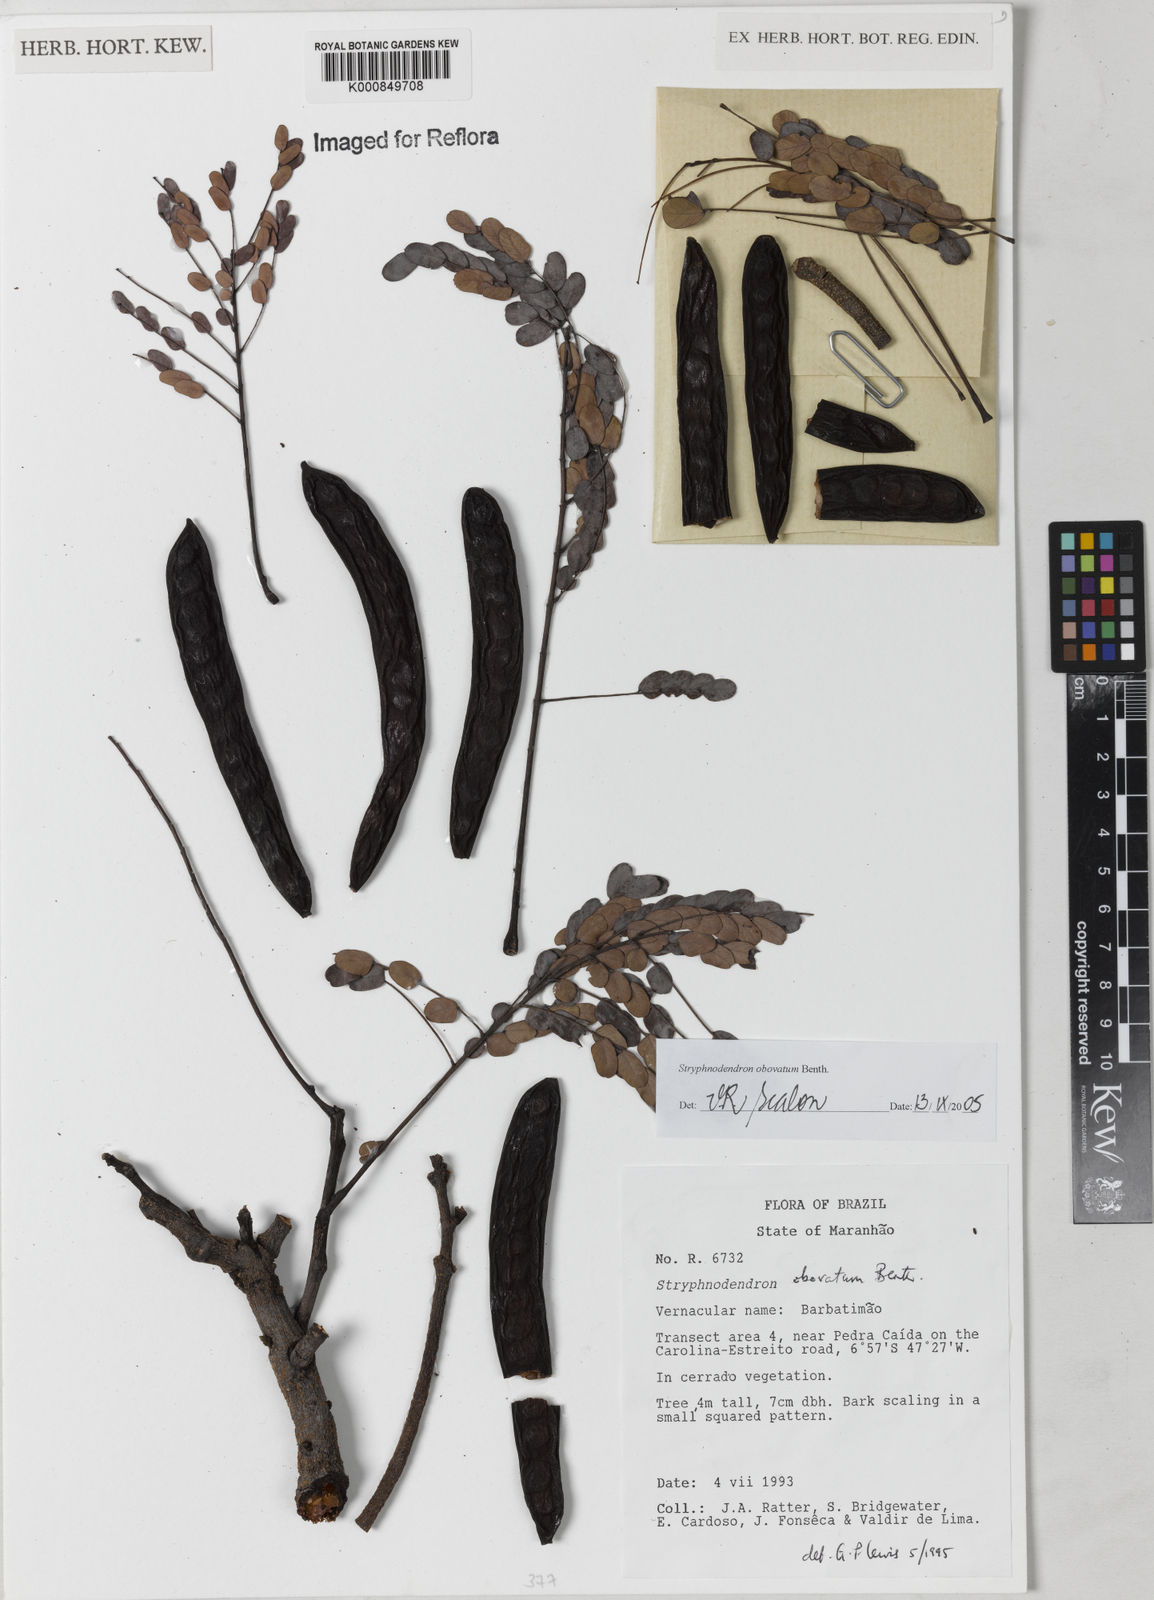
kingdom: Plantae
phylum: Tracheophyta
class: Magnoliopsida
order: Fabales
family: Fabaceae
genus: Stryphnodendron
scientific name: Stryphnodendron rotundifolium
